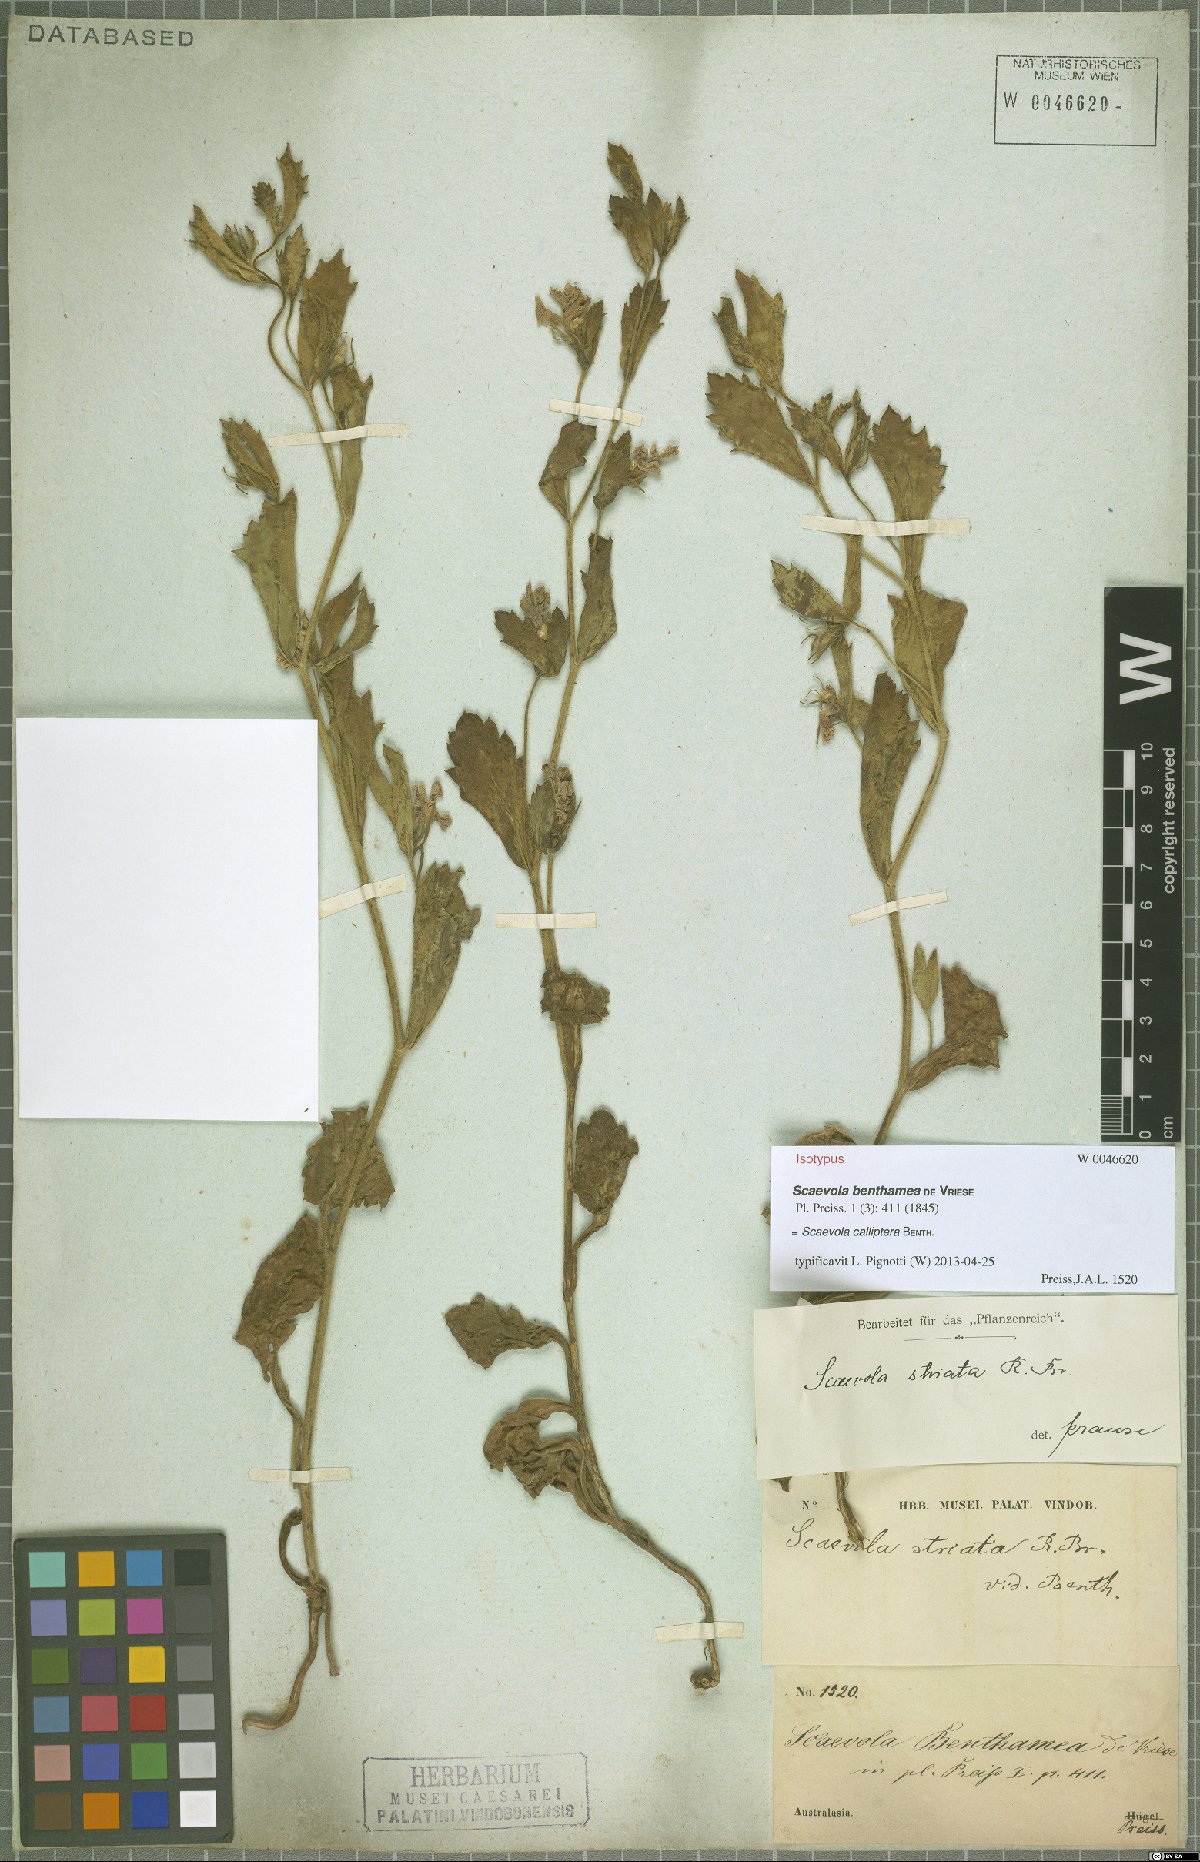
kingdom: Plantae
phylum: Tracheophyta
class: Magnoliopsida
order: Asterales
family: Goodeniaceae
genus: Scaevola
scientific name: Scaevola calliptera
